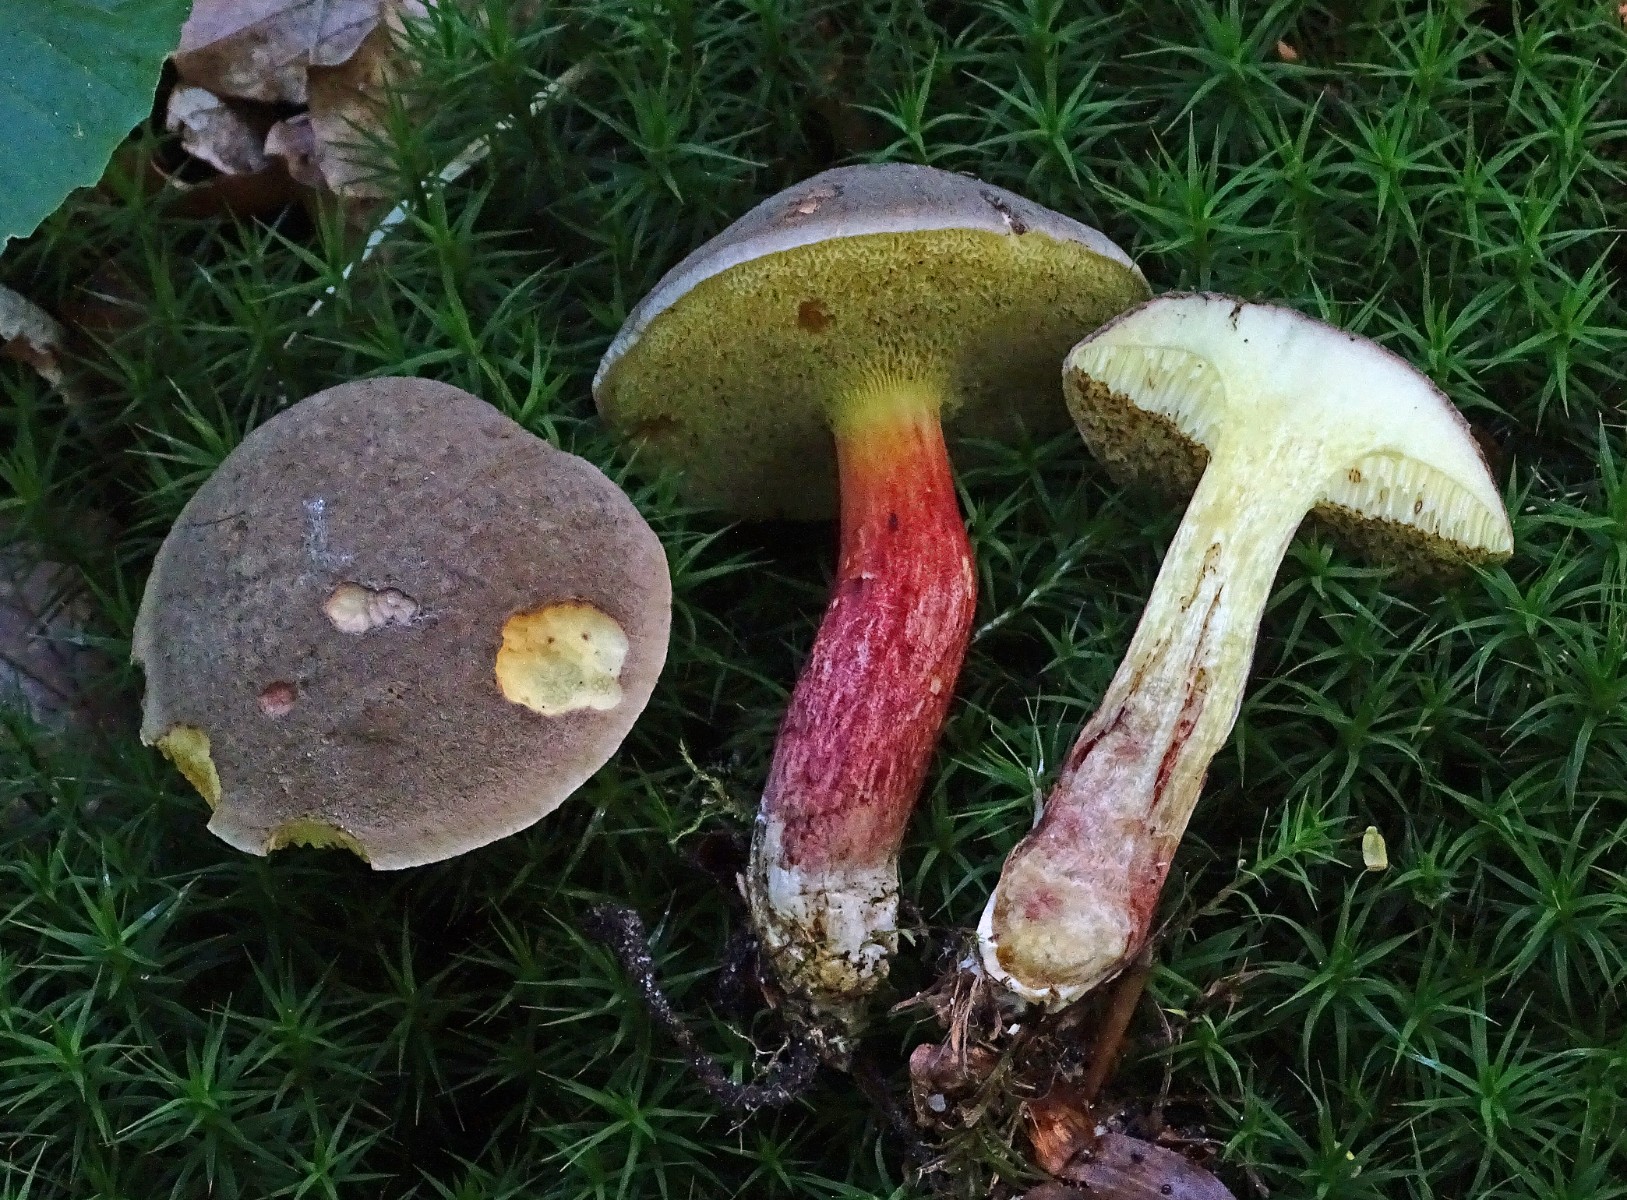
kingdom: Fungi
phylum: Basidiomycota
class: Agaricomycetes
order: Boletales
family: Boletaceae
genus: Xerocomellus
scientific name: Xerocomellus chrysenteron
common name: rødsprukken rørhat
